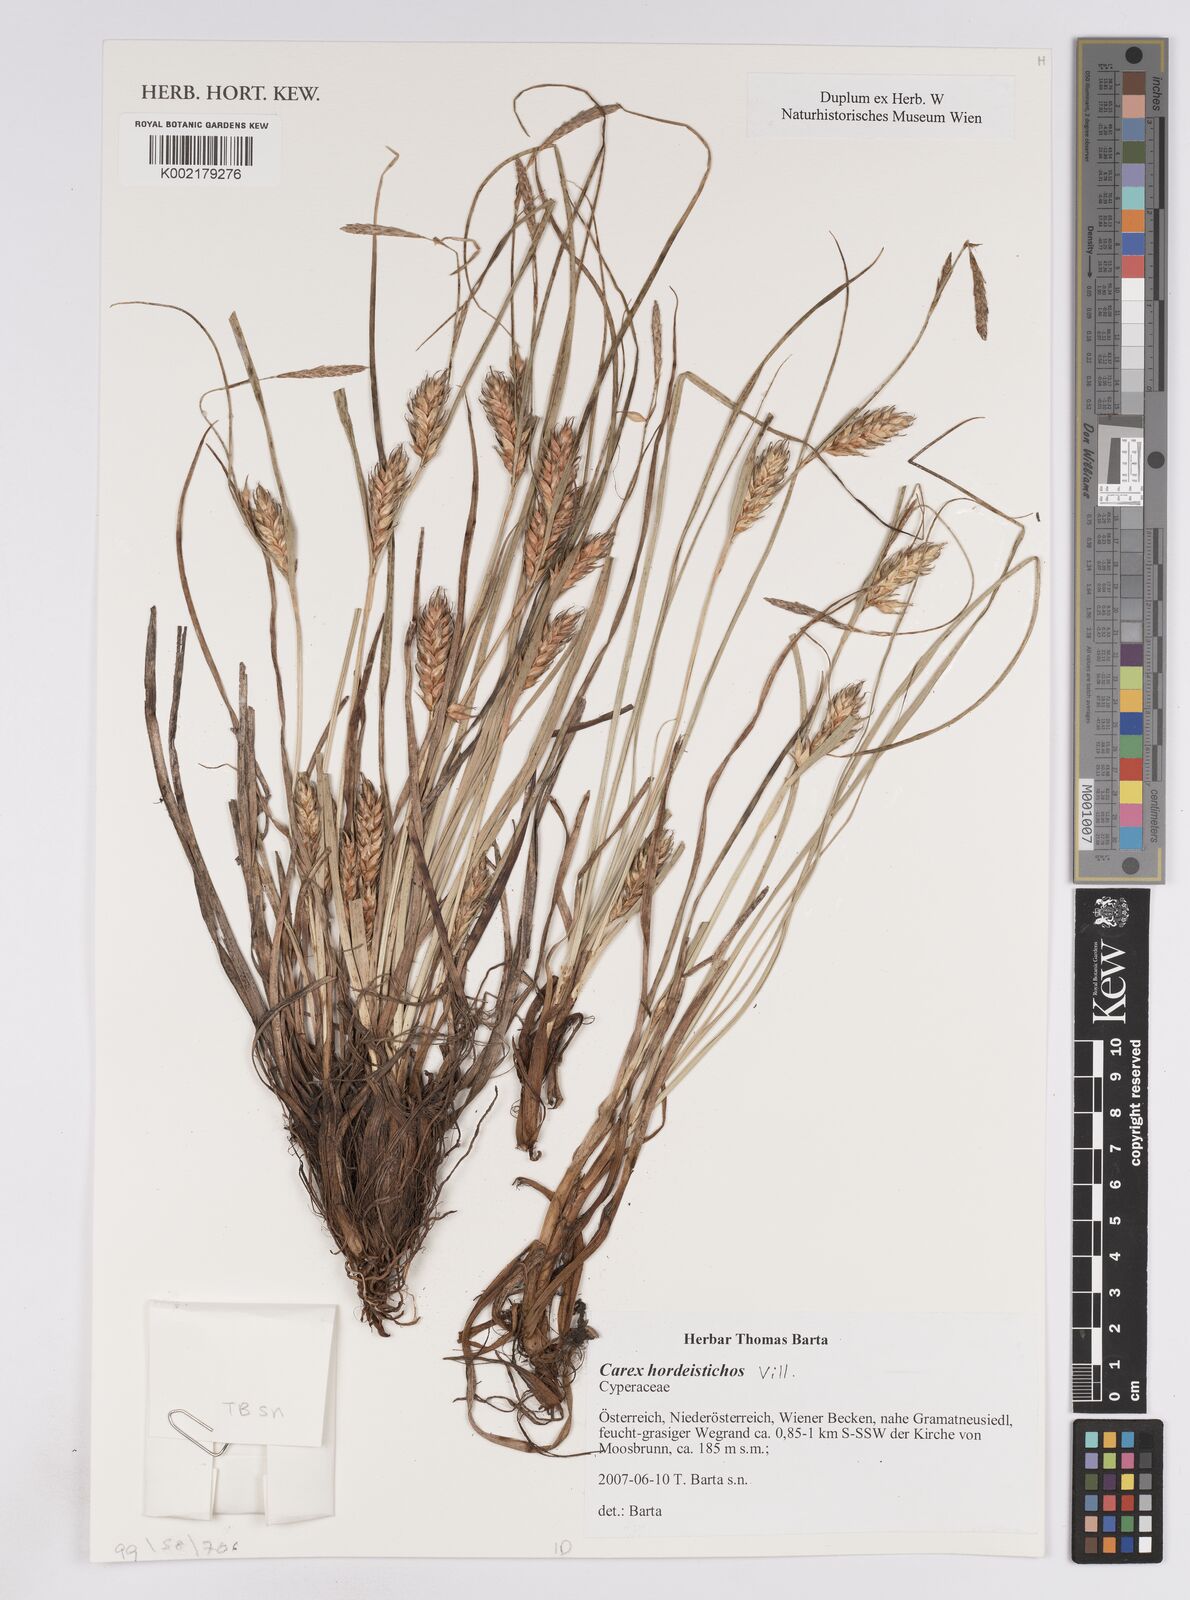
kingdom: Plantae
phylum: Tracheophyta
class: Liliopsida
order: Poales
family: Cyperaceae
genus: Carex
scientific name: Carex hordeistichos
